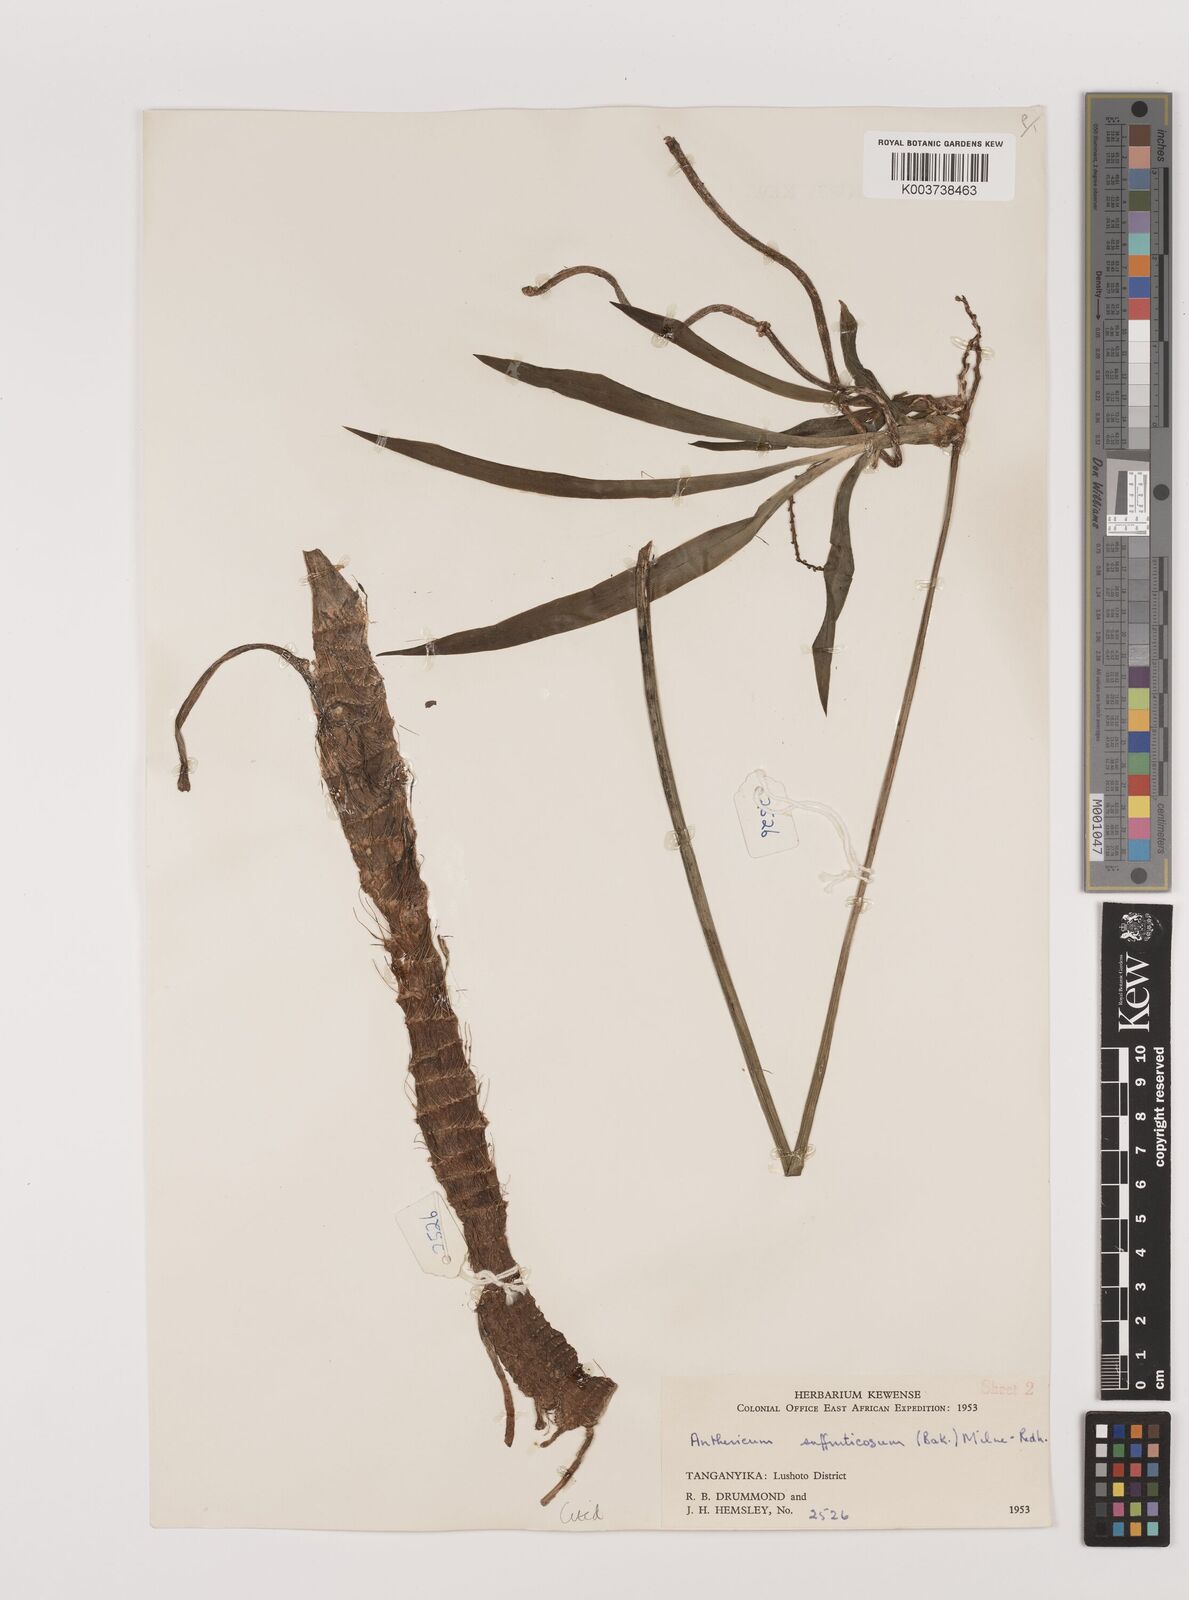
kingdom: Plantae
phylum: Tracheophyta
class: Liliopsida
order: Asparagales
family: Asparagaceae
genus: Chlorophytum
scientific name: Chlorophytum suffruticosum
